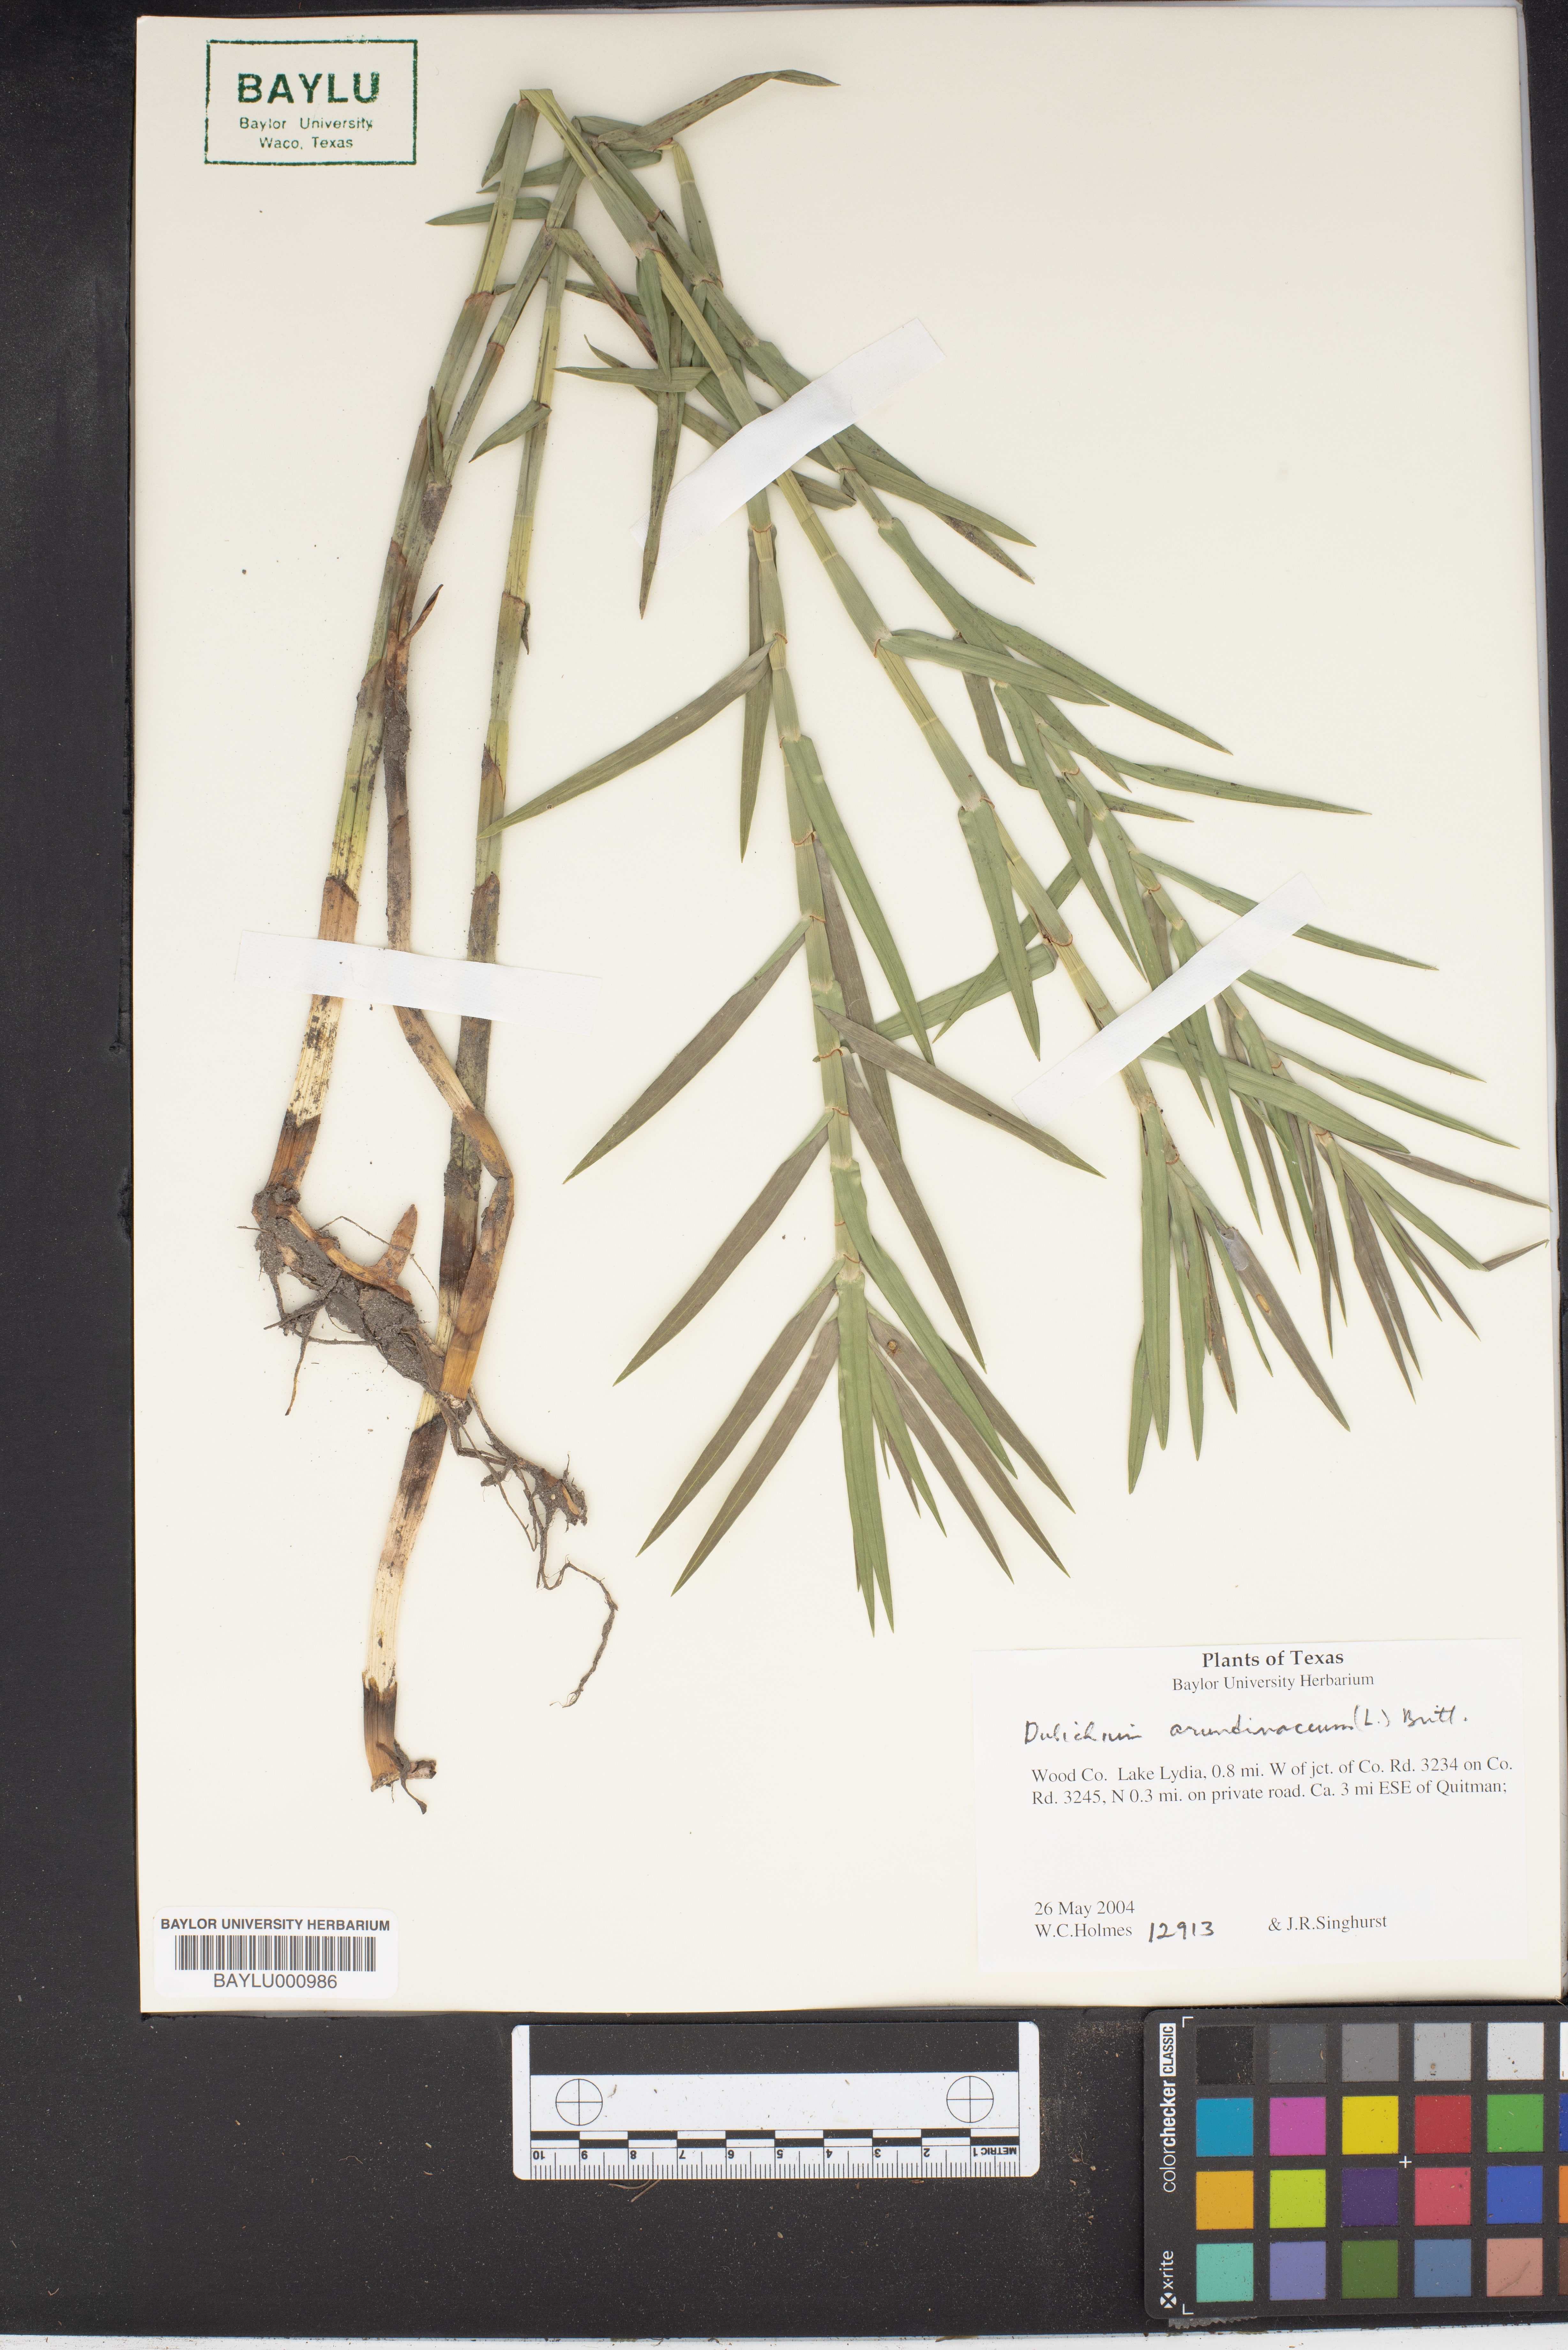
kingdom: Plantae
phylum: Tracheophyta
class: Liliopsida
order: Poales
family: Cyperaceae
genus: Dulichium
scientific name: Dulichium arundinaceum
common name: Three-way sedge
